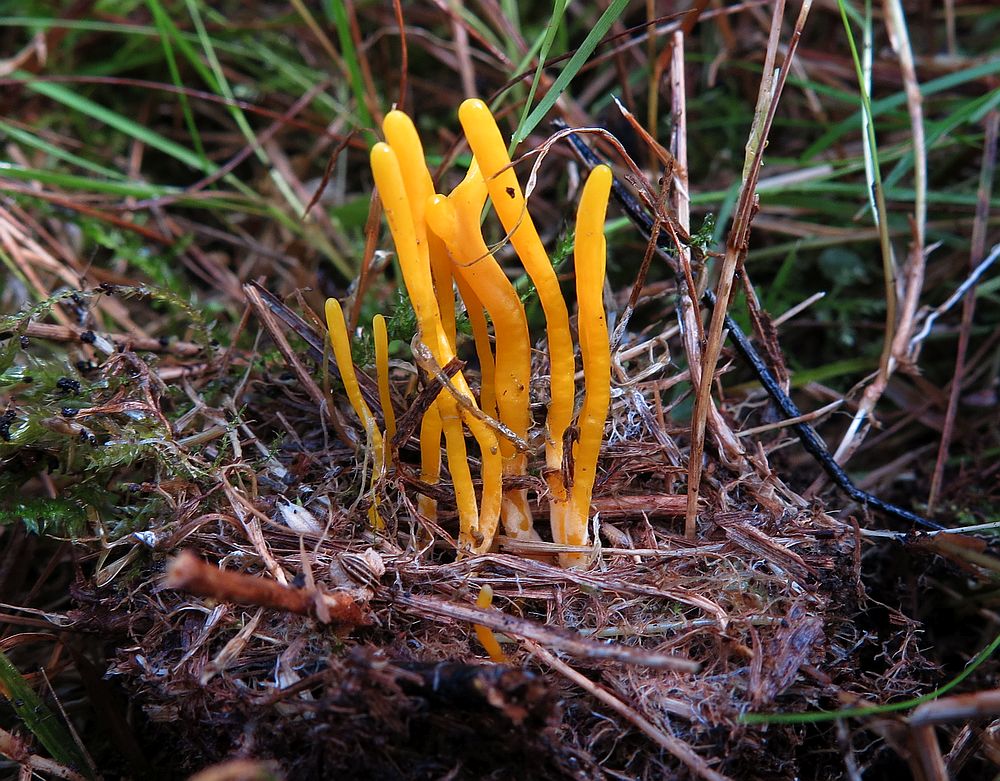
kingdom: Fungi
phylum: Basidiomycota
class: Agaricomycetes
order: Agaricales
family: Clavariaceae
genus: Clavulinopsis
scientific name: Clavulinopsis helvola
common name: orangegul køllesvamp
